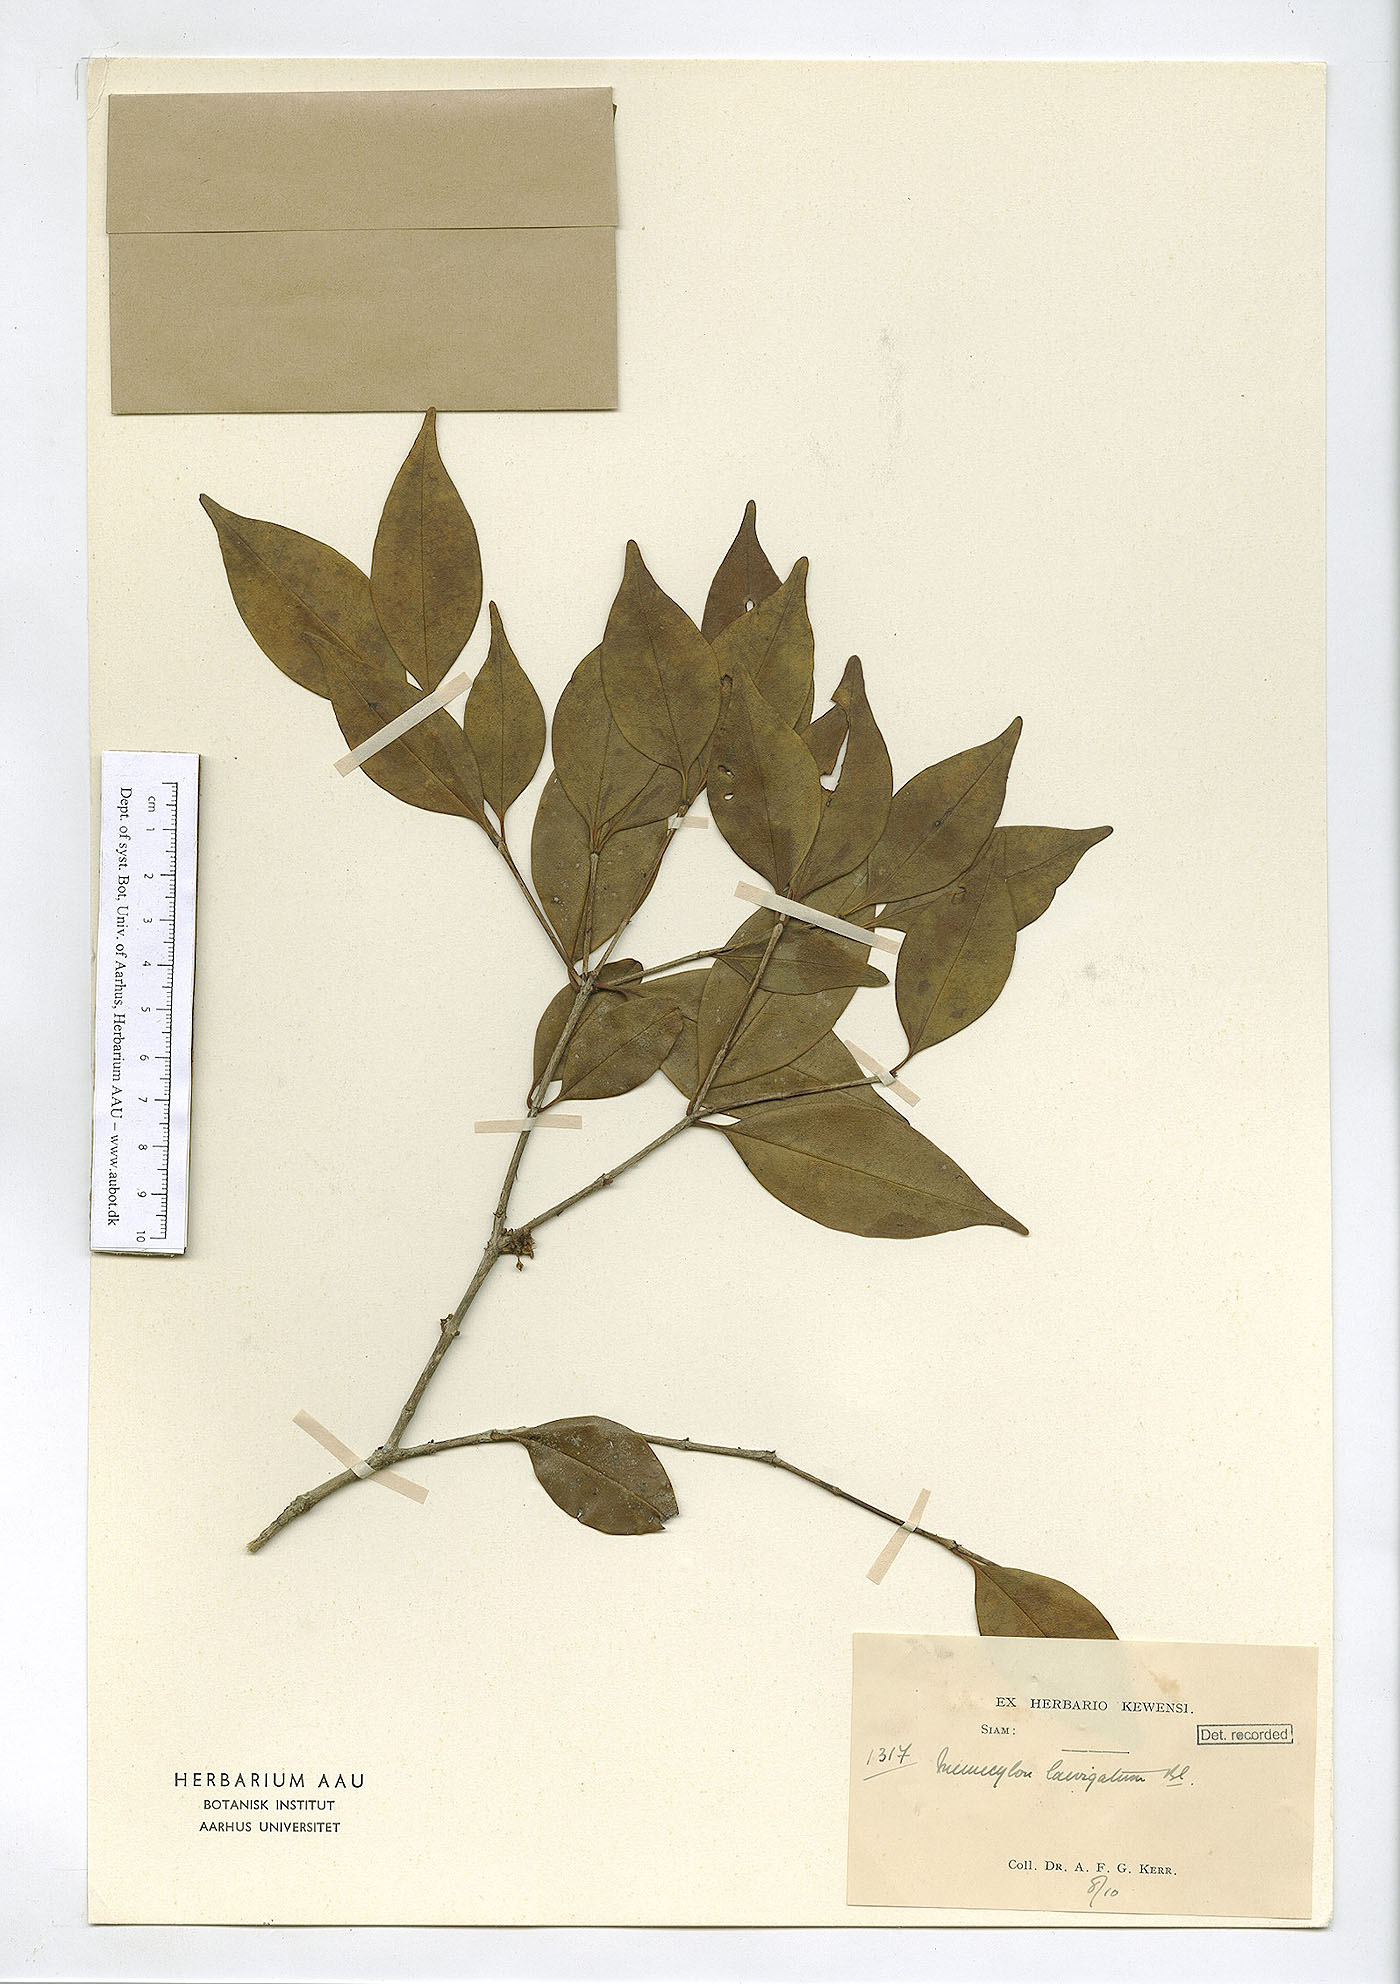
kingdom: Plantae
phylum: Tracheophyta
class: Magnoliopsida
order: Myrtales
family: Melastomataceae
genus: Memecylon
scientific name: Memecylon plebejum
